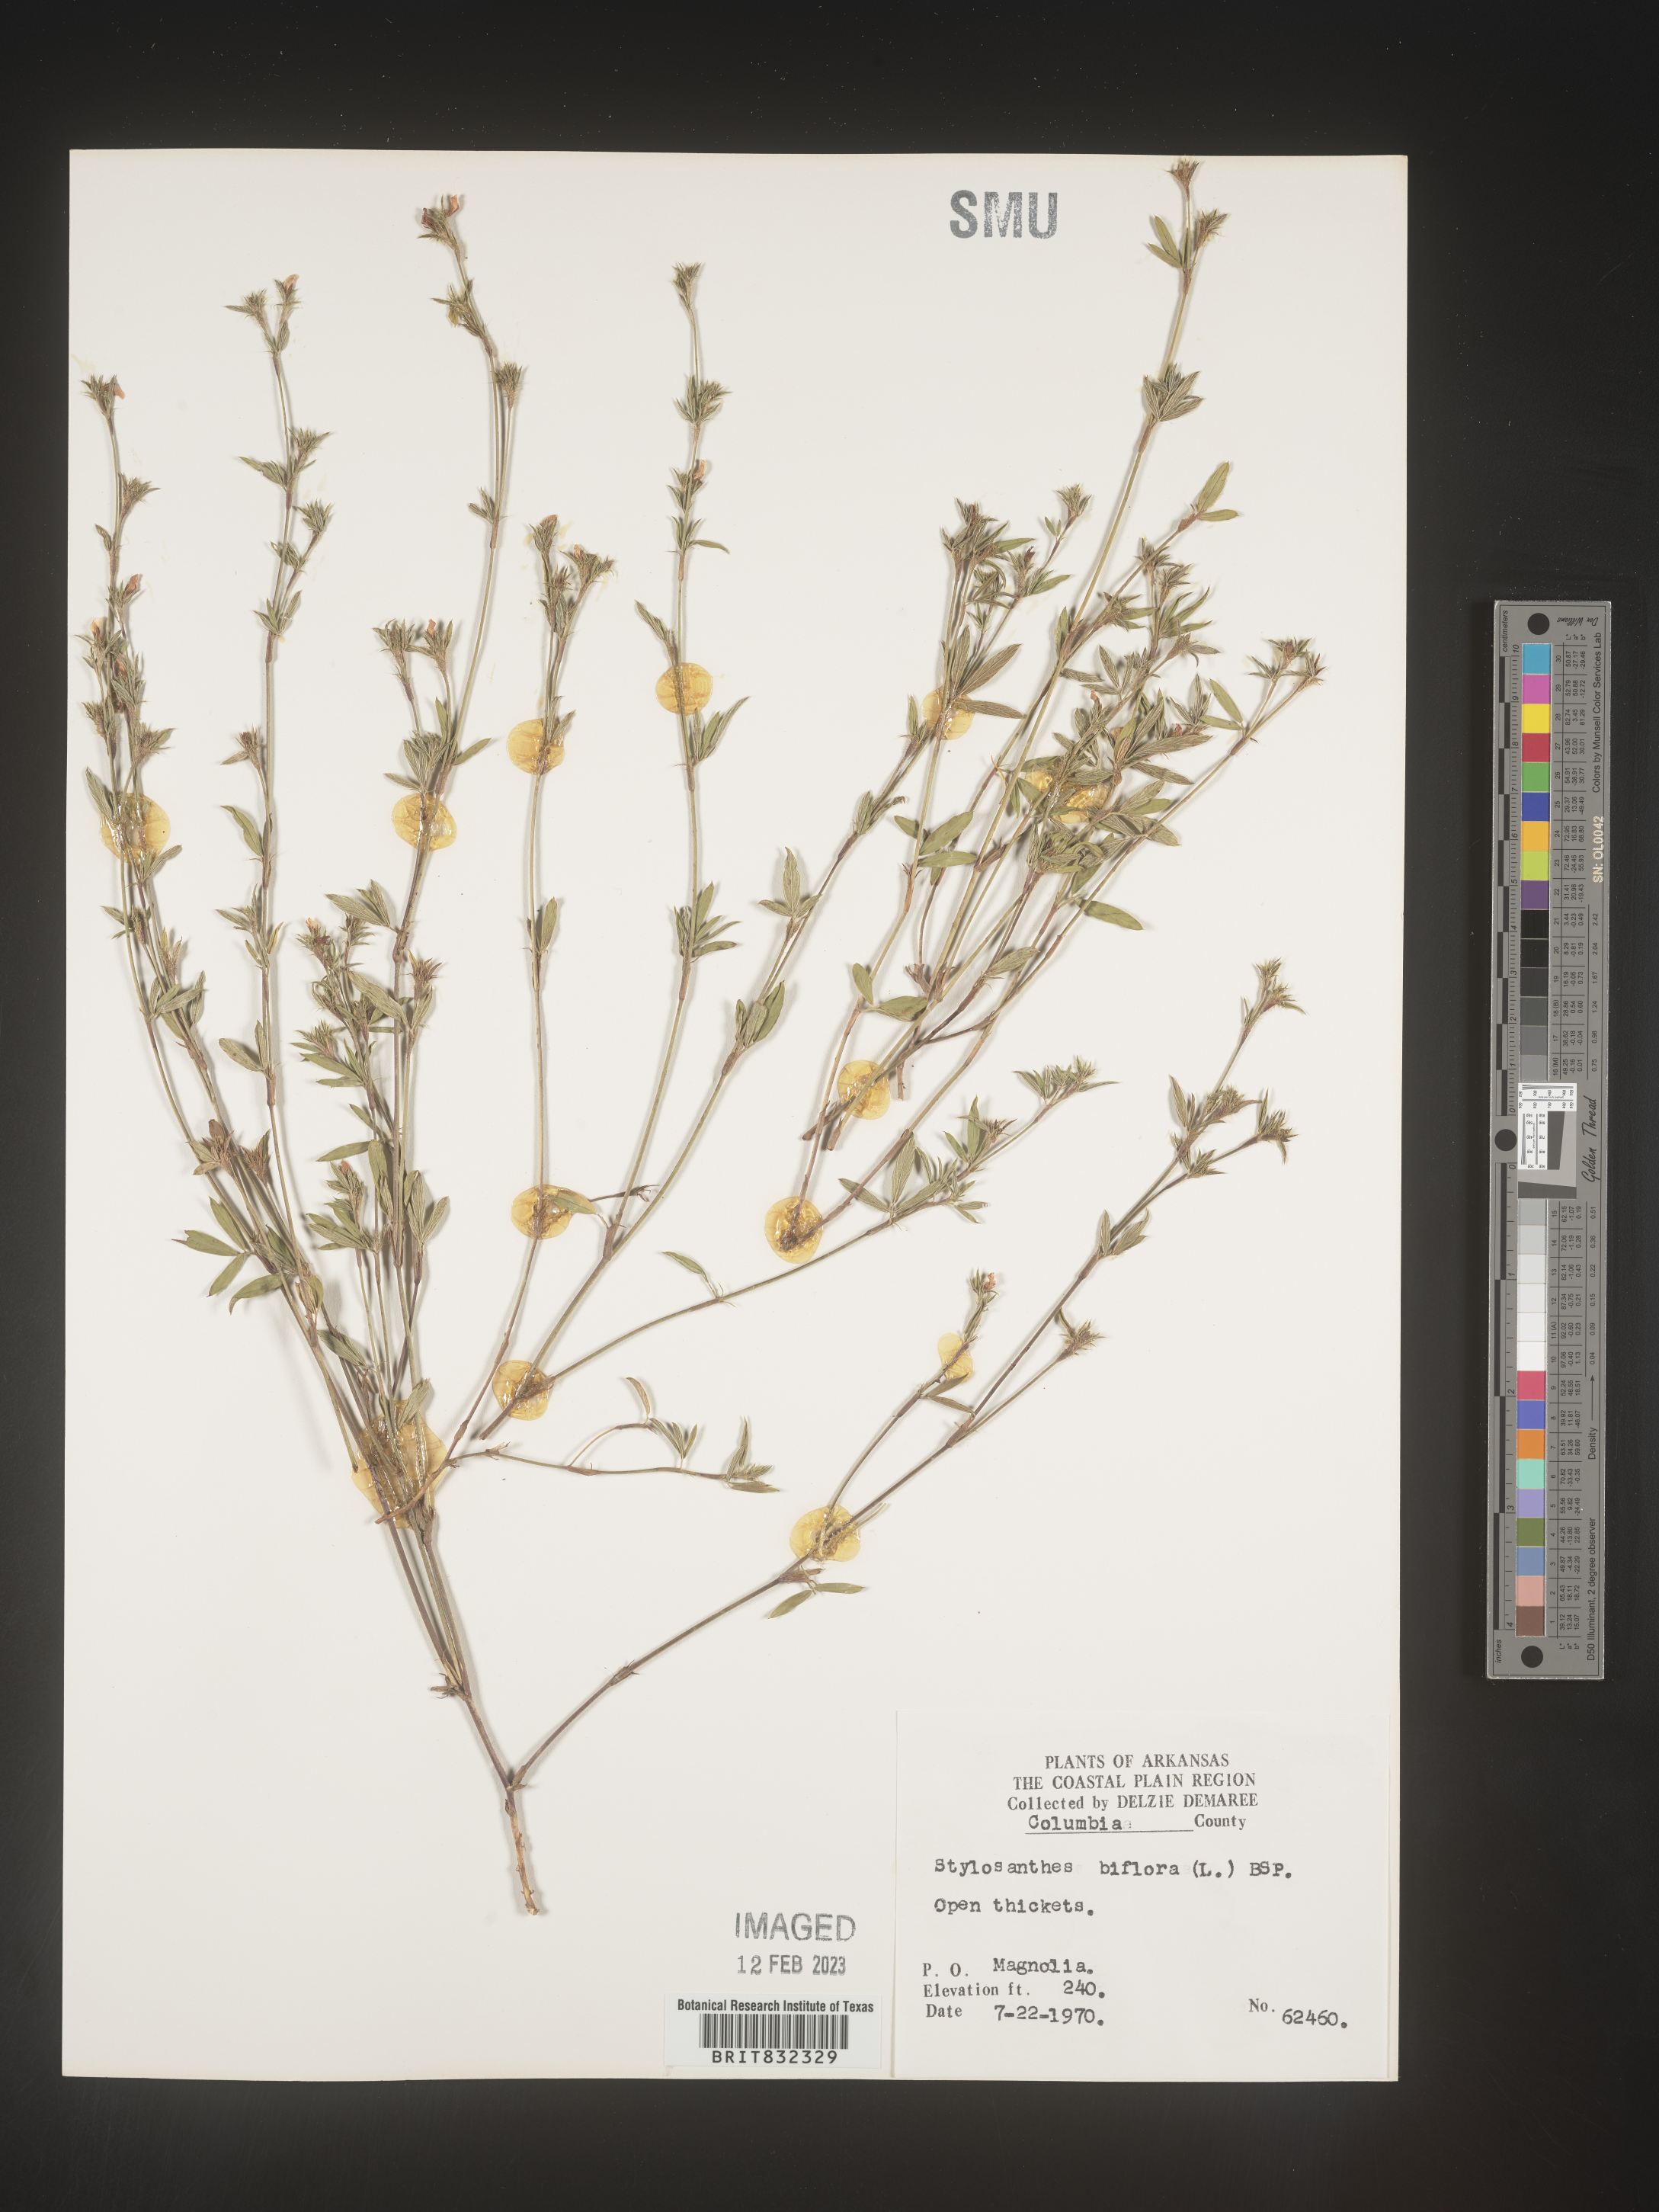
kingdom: Plantae
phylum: Tracheophyta
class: Magnoliopsida
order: Fabales
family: Fabaceae
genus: Stylosanthes
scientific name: Stylosanthes biflora
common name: Two-flower pencil-flower
